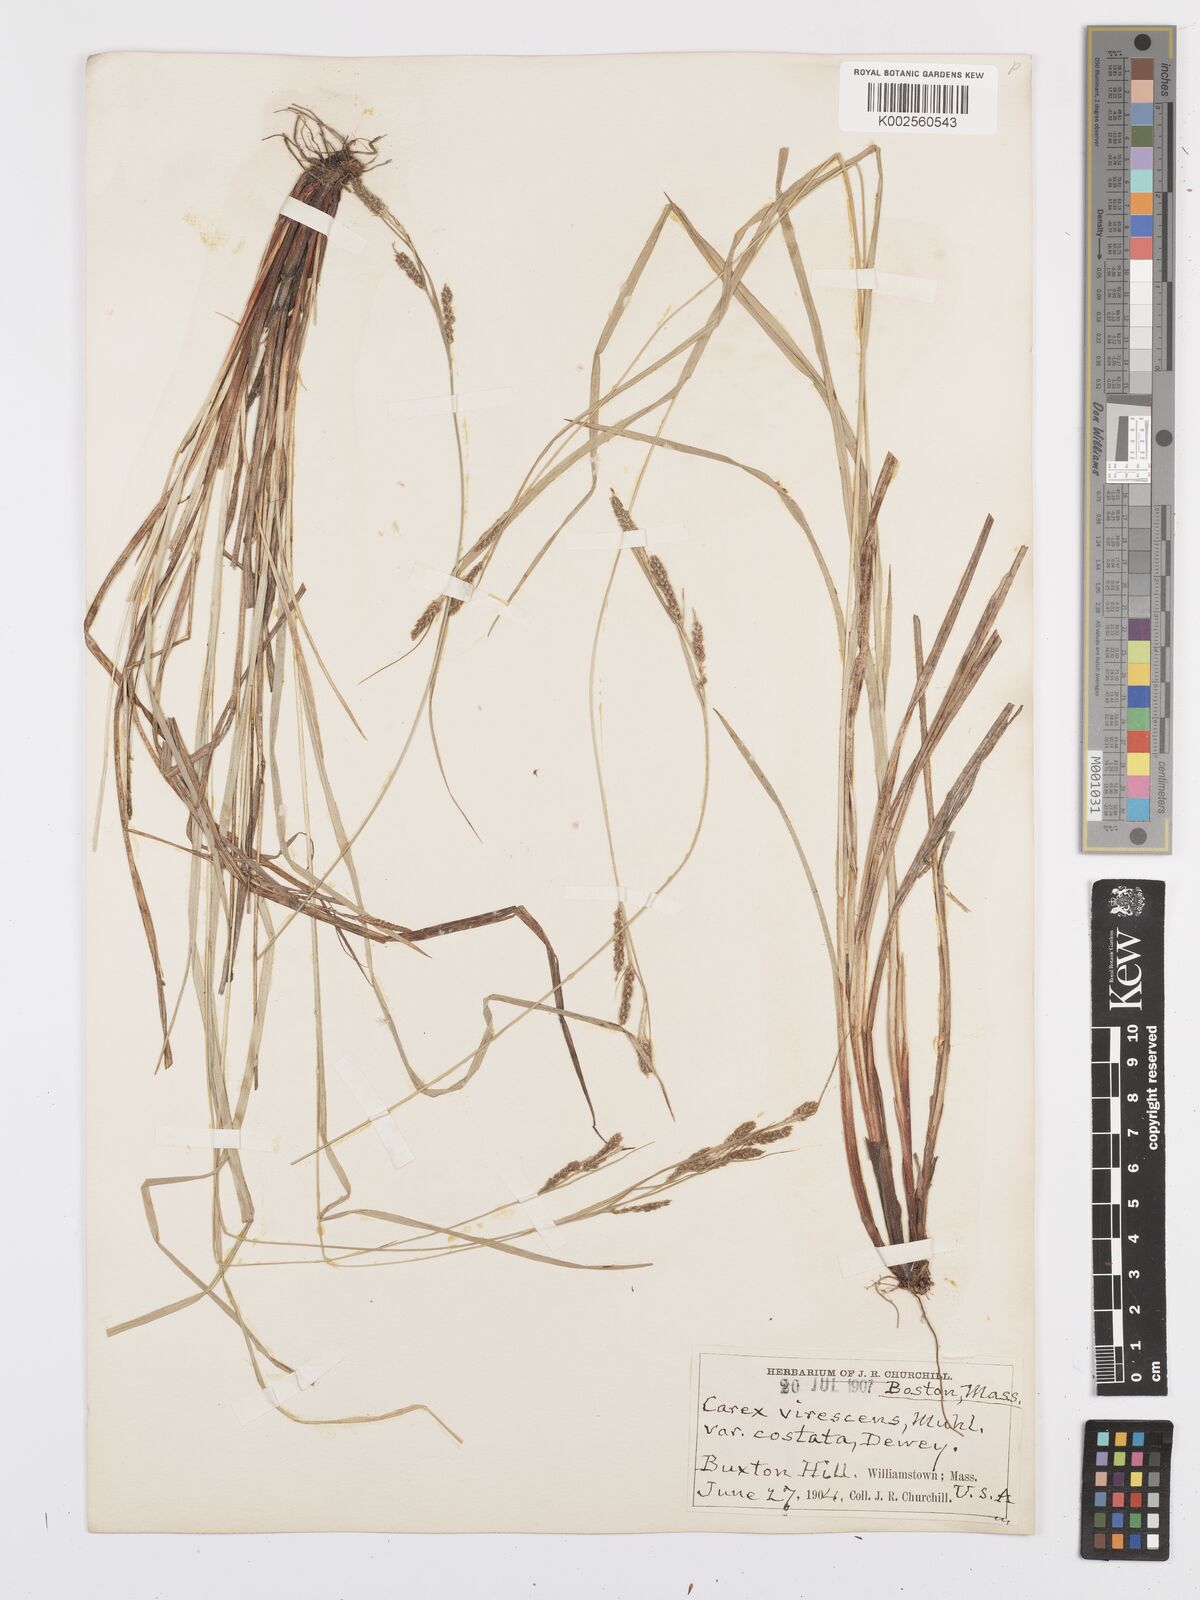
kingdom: Plantae
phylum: Tracheophyta
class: Liliopsida
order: Poales
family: Cyperaceae
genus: Carex
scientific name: Carex virescens
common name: Ribbed sedge
